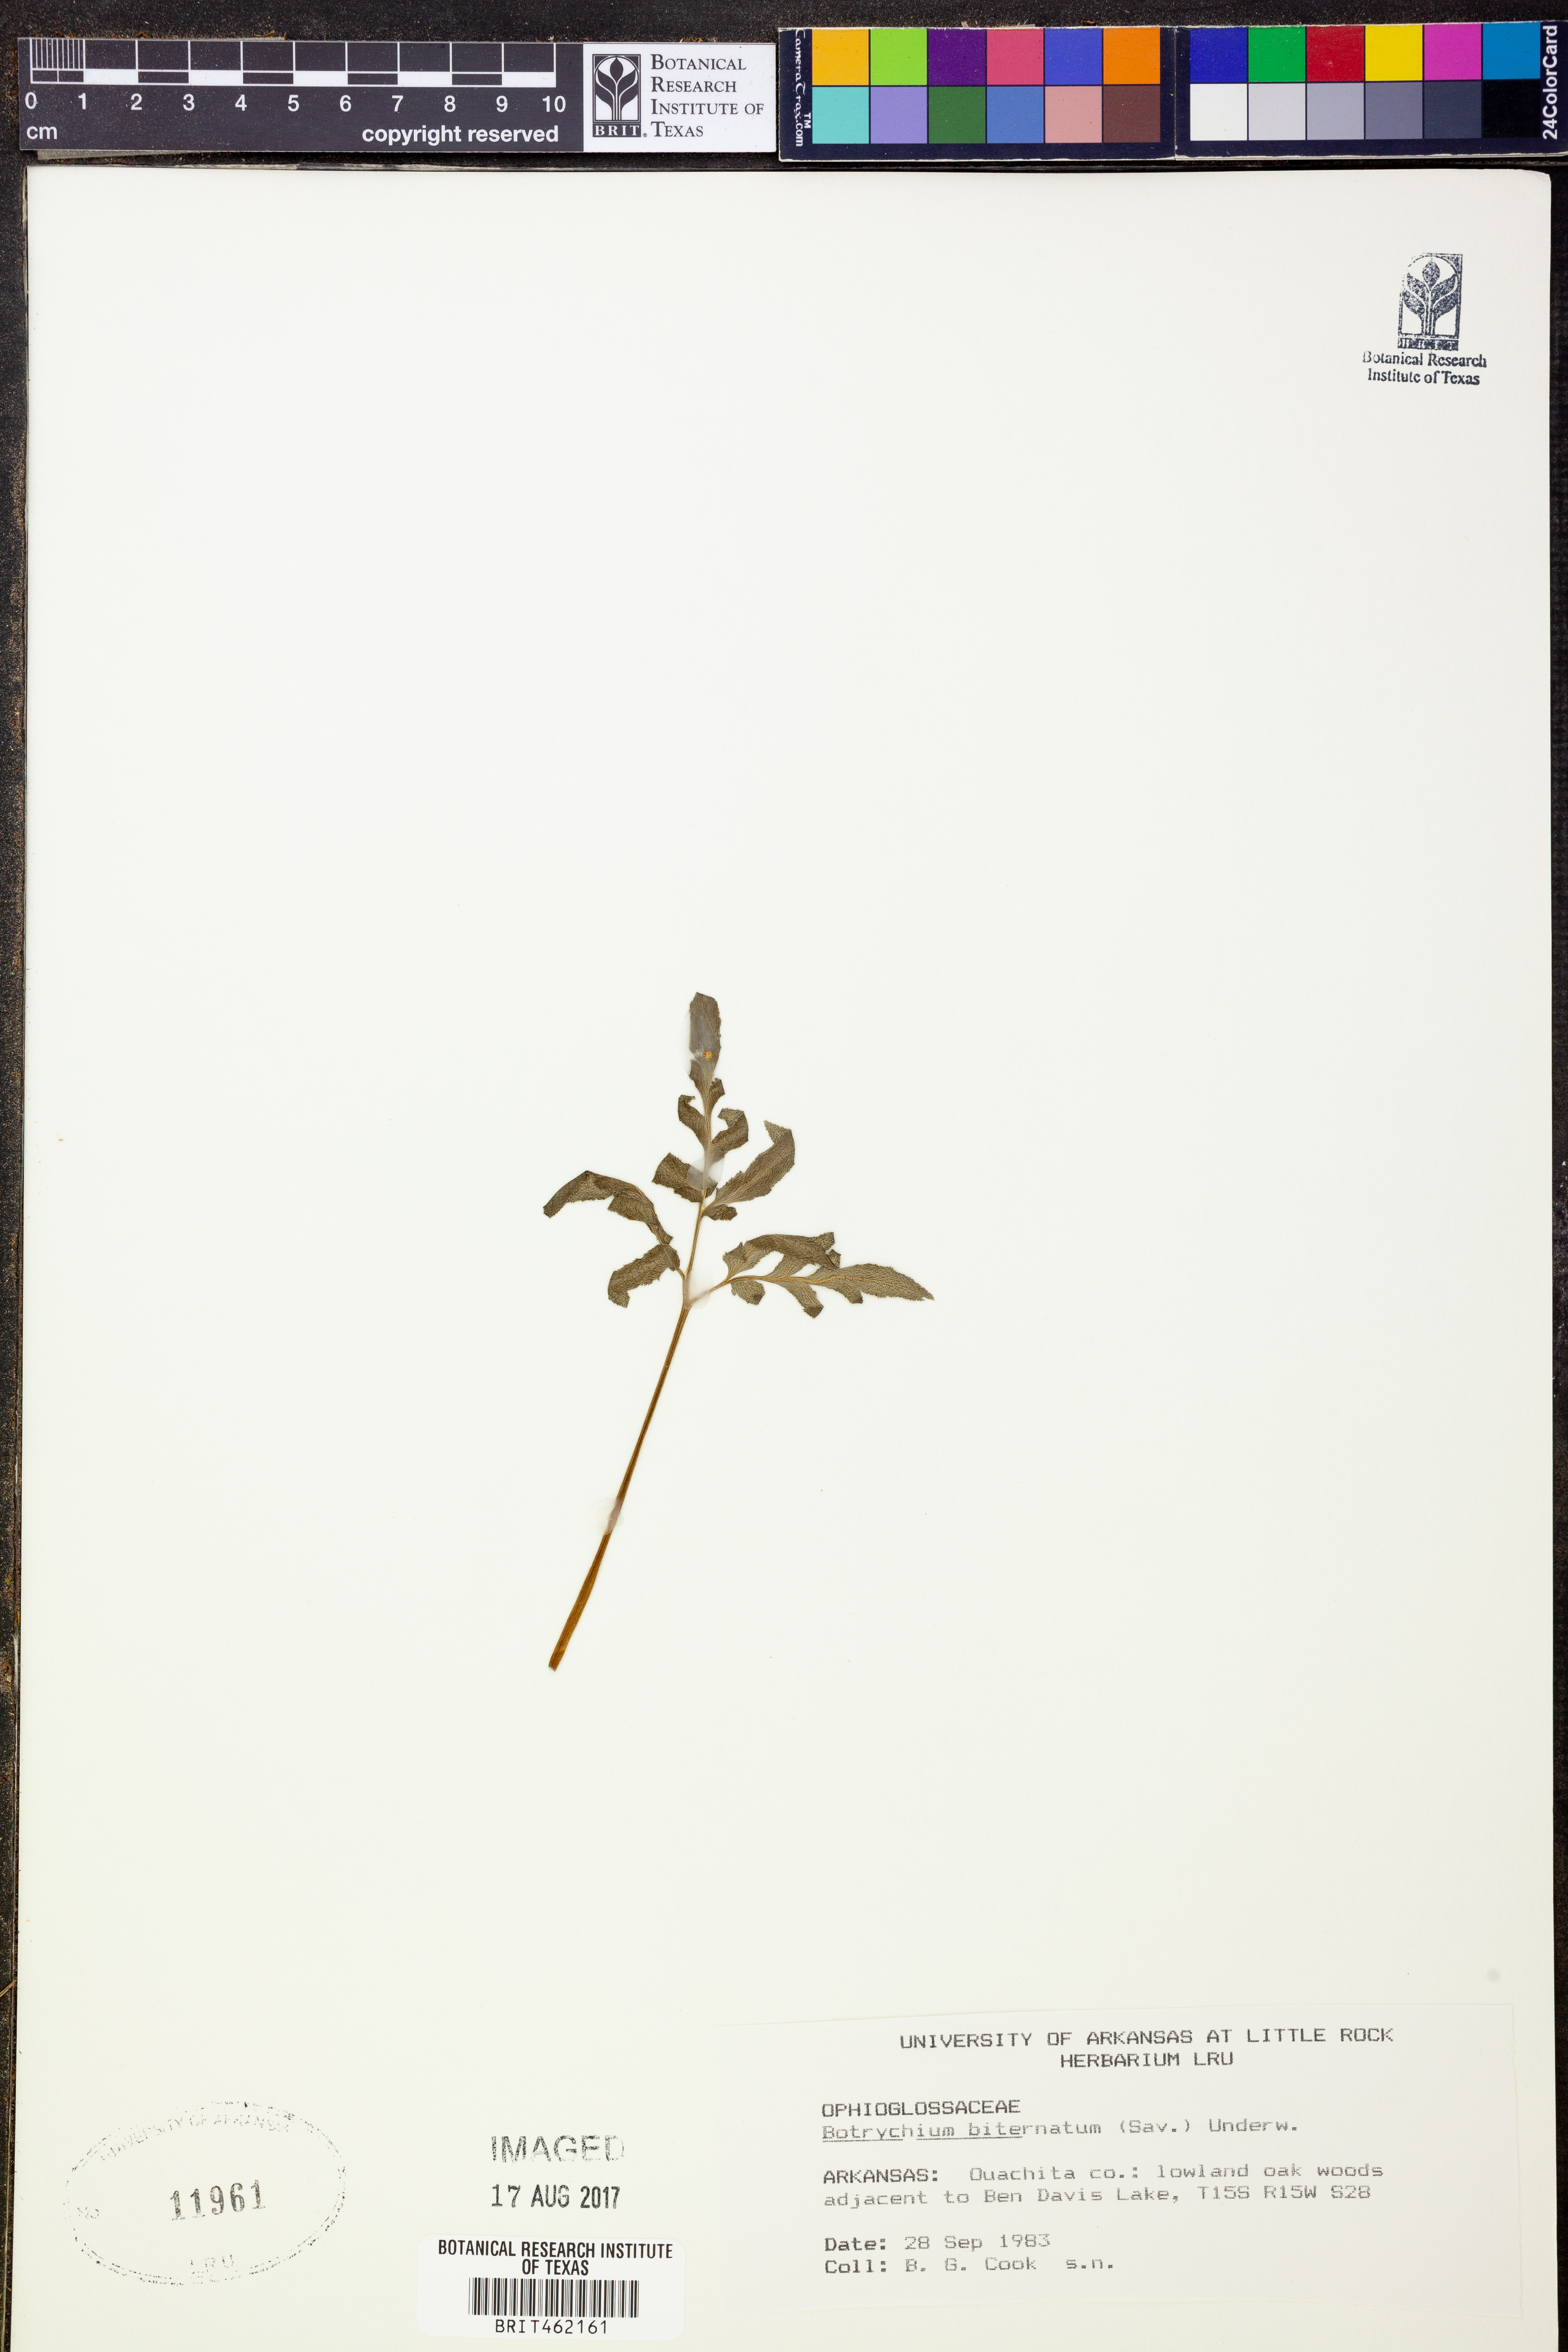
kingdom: Plantae
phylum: Tracheophyta
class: Polypodiopsida
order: Ophioglossales
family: Ophioglossaceae
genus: Sceptridium
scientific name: Sceptridium biternatum
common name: Sparse-lobed grapefern
